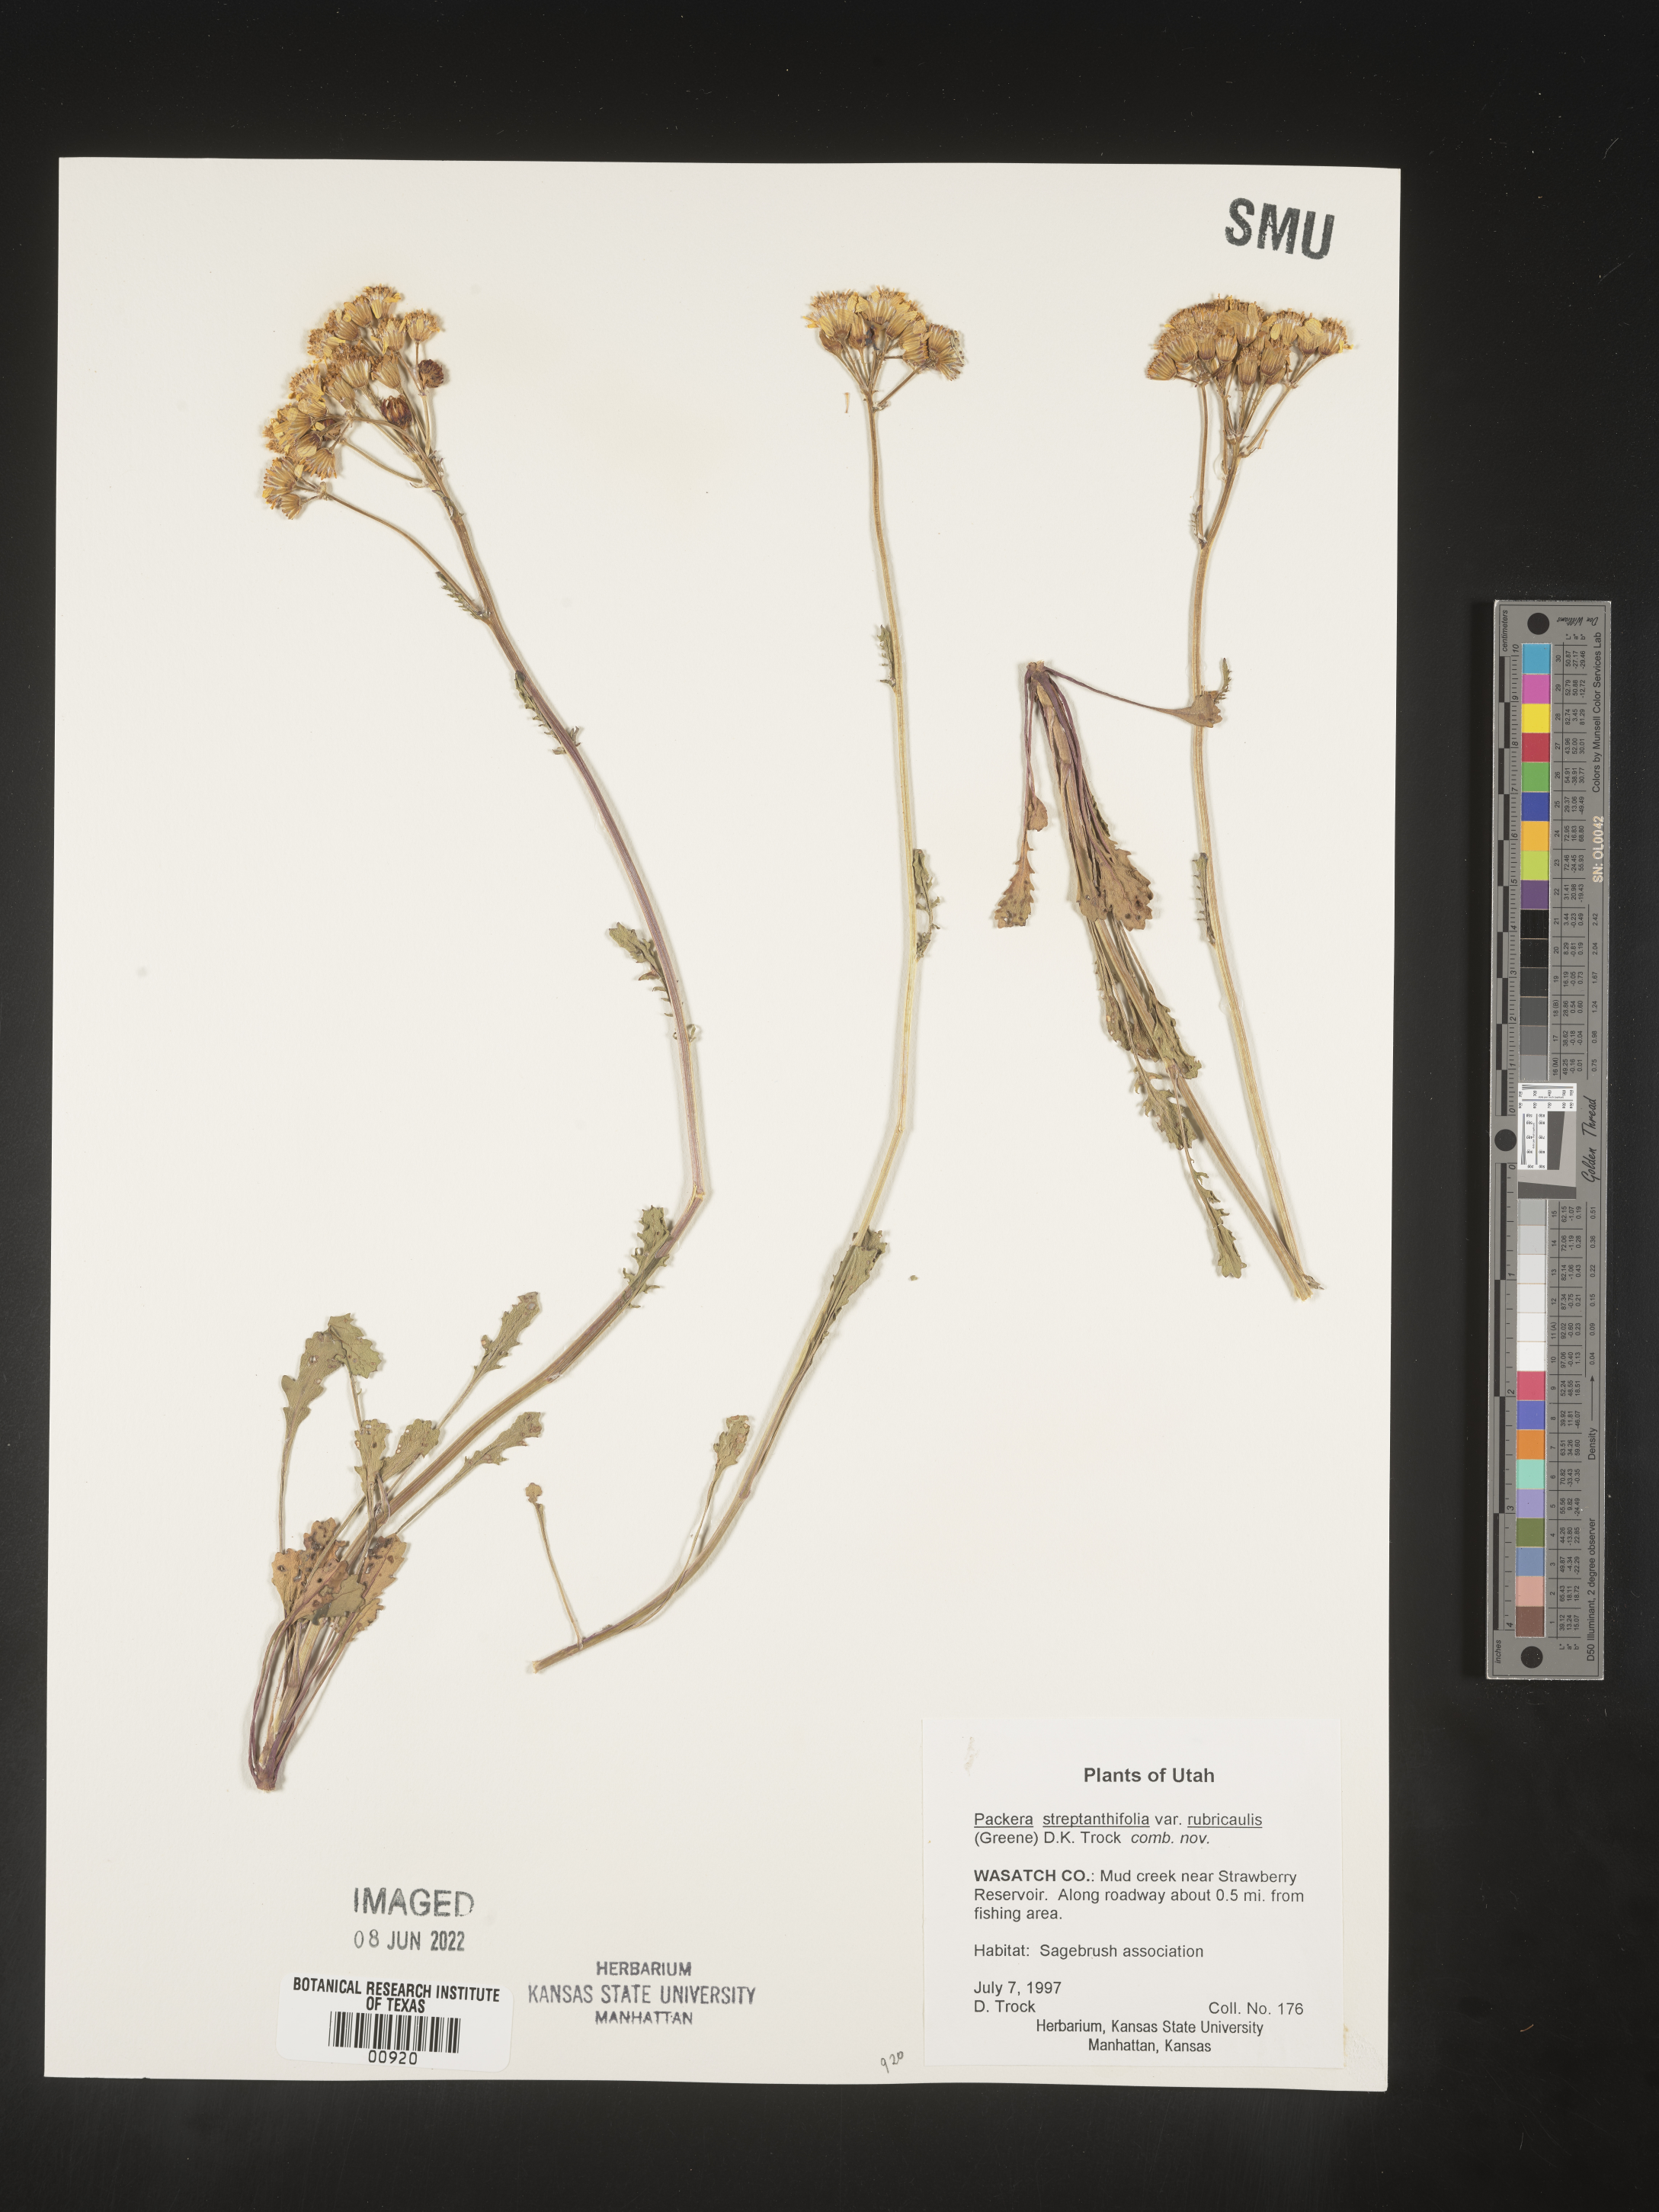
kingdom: Plantae
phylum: Tracheophyta
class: Magnoliopsida
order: Asterales
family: Asteraceae
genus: Packera
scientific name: Packera streptanthifolia
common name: Rocky mountain butterweed
